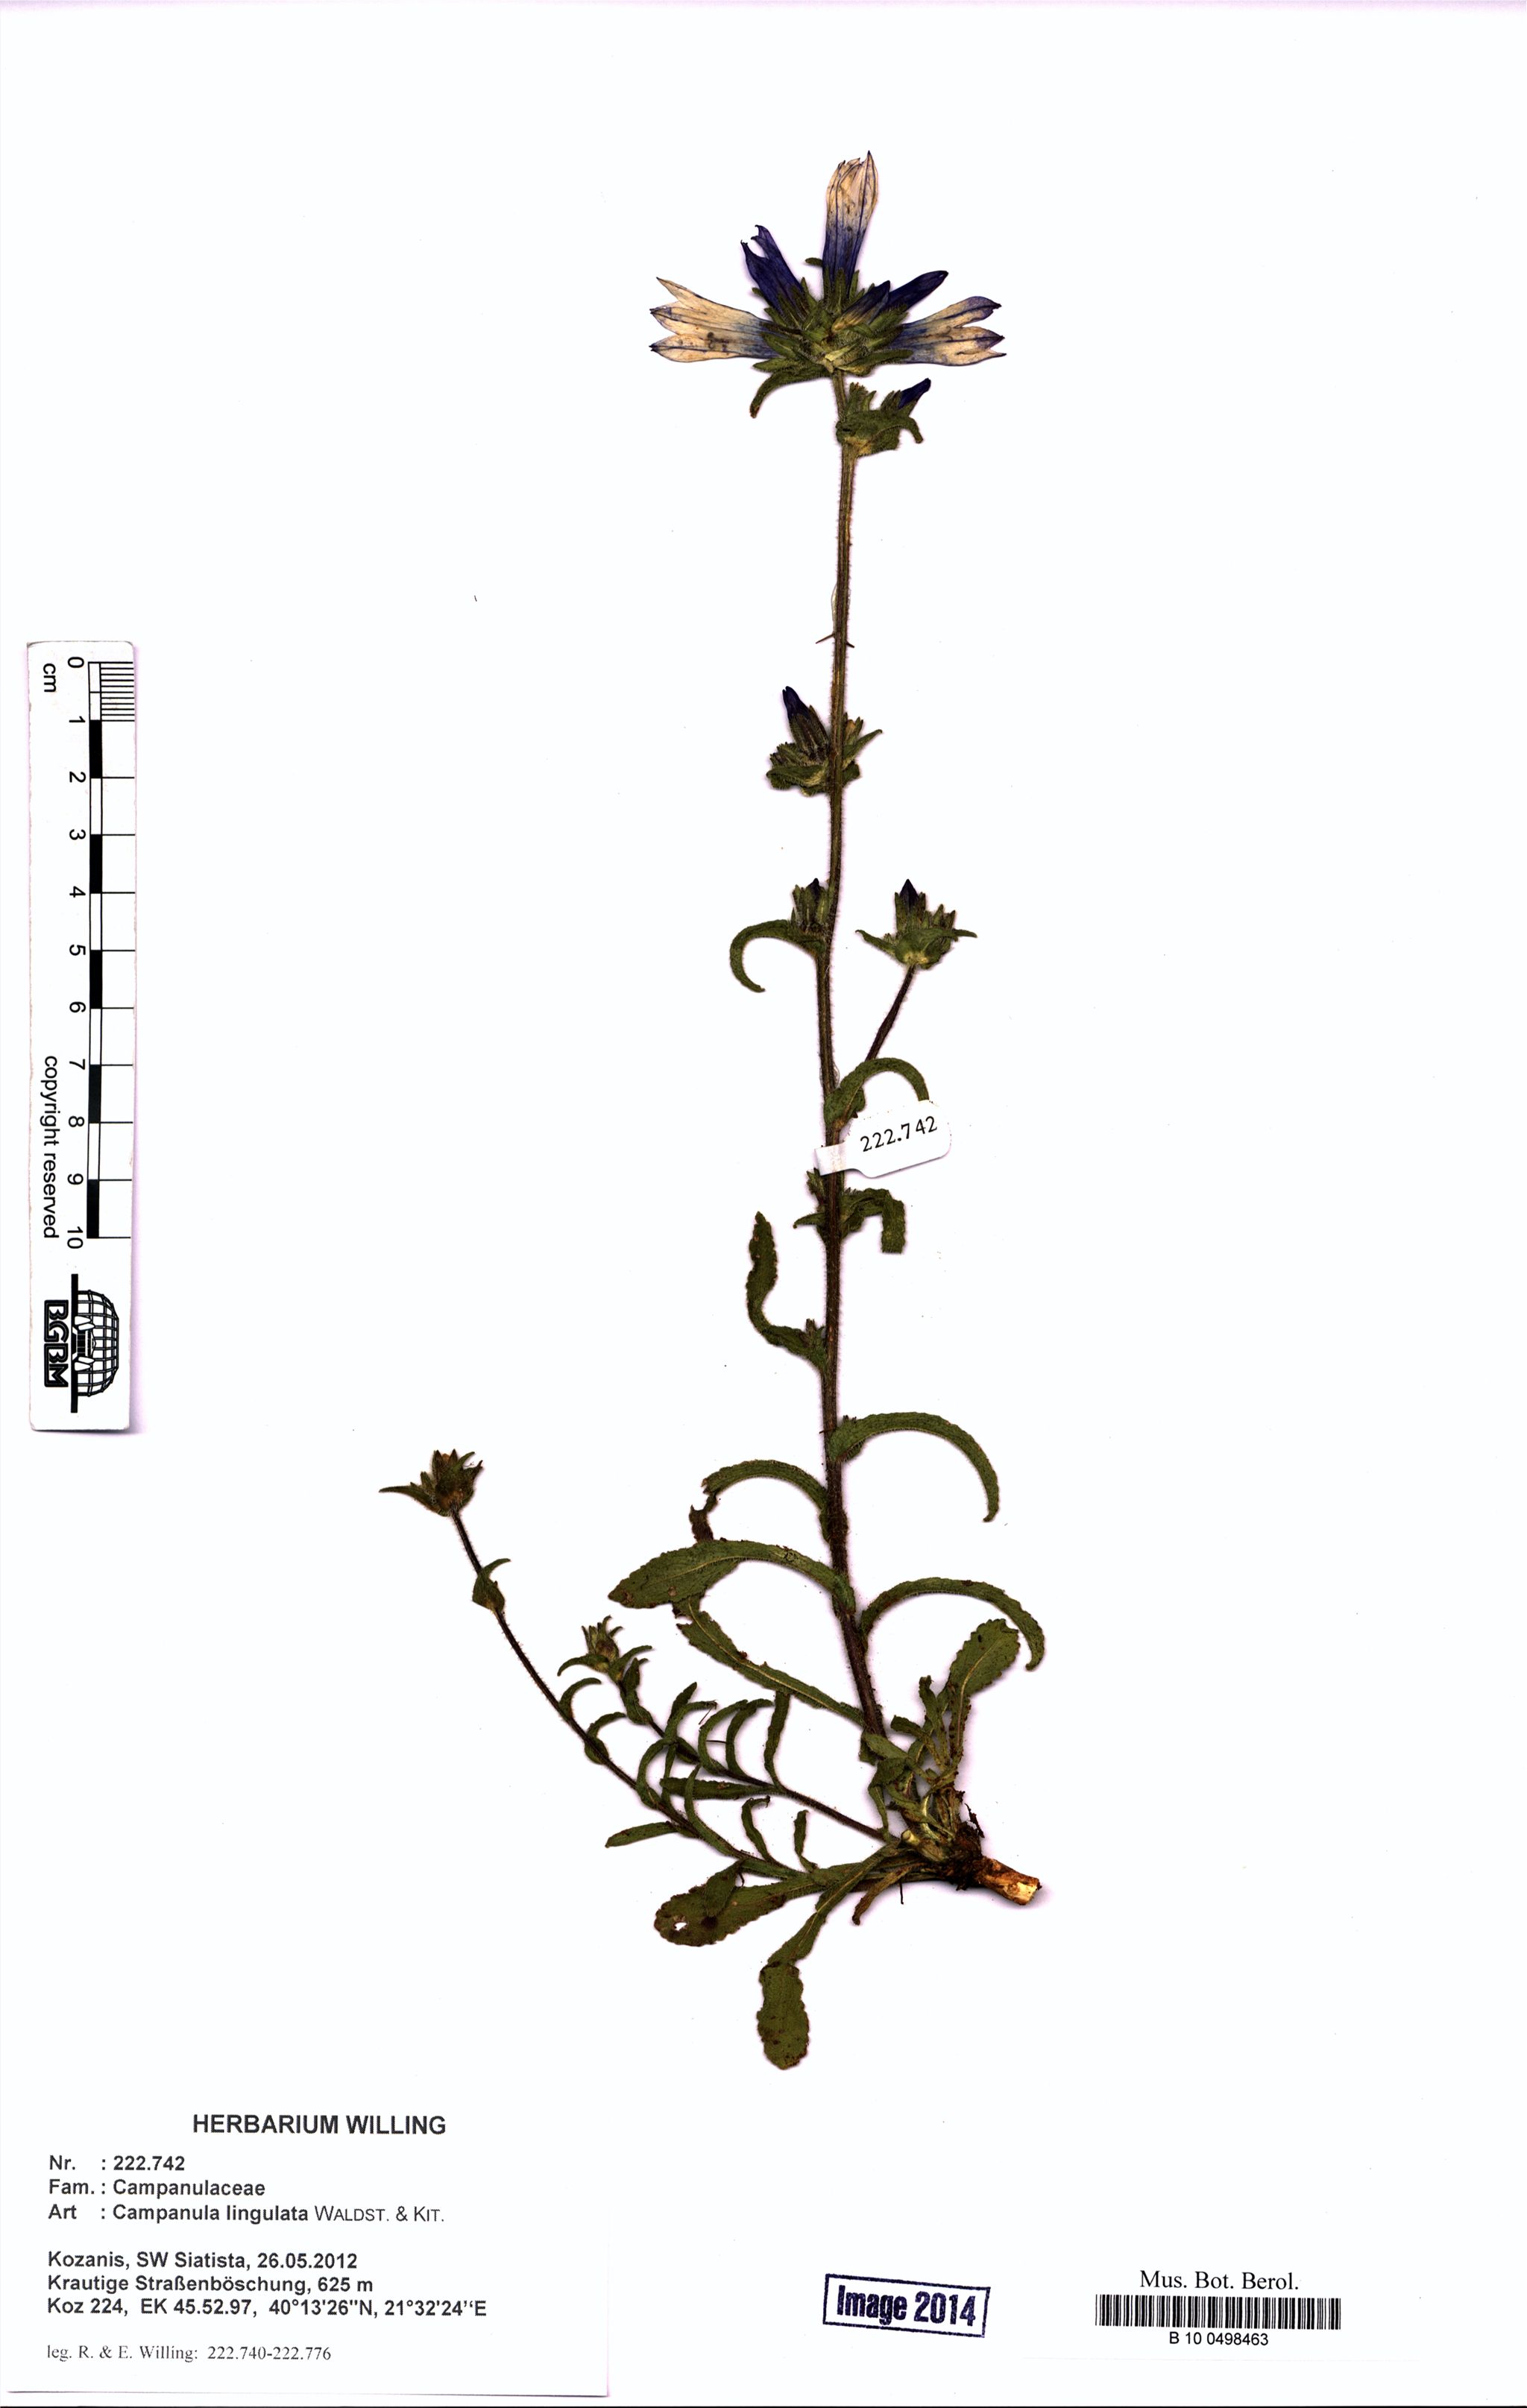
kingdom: Plantae
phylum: Tracheophyta
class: Magnoliopsida
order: Asterales
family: Campanulaceae
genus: Campanula
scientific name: Campanula lingulata
